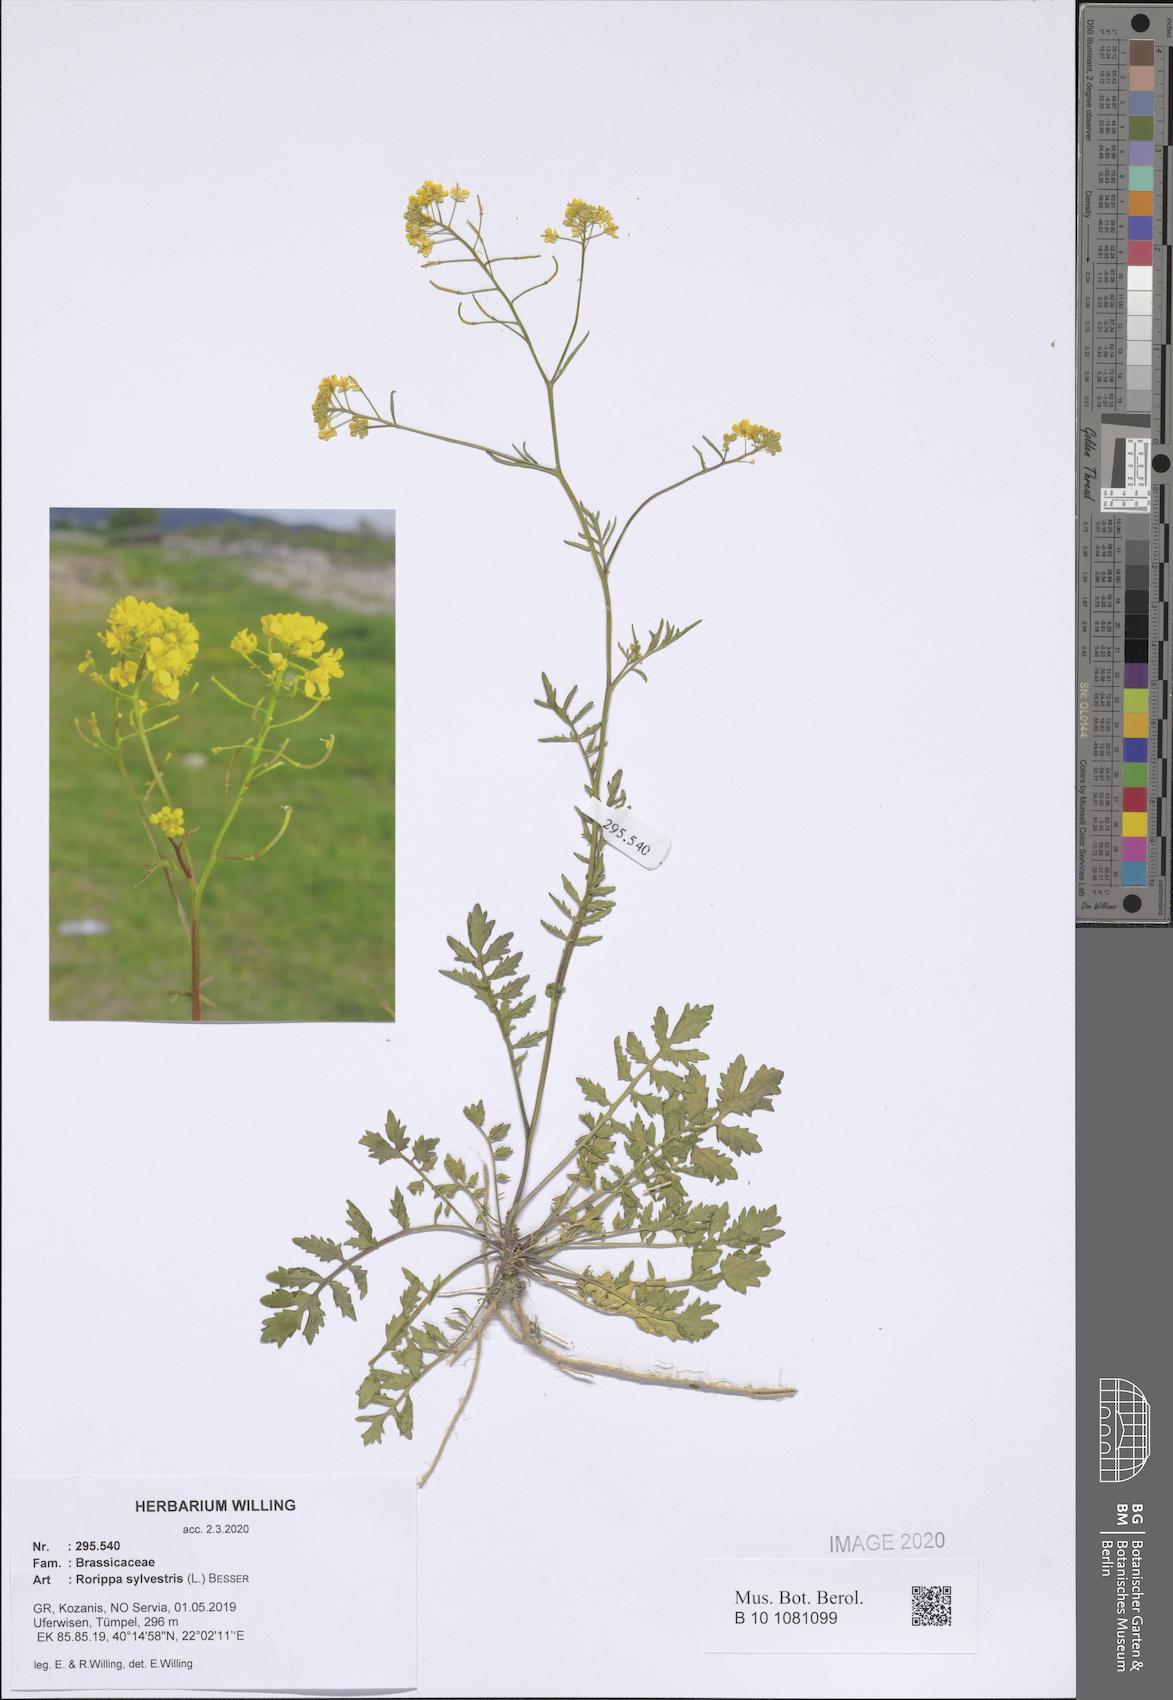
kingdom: Plantae
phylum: Tracheophyta
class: Magnoliopsida
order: Brassicales
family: Brassicaceae
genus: Rorippa
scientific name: Rorippa sylvestris
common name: Creeping yellowcress
